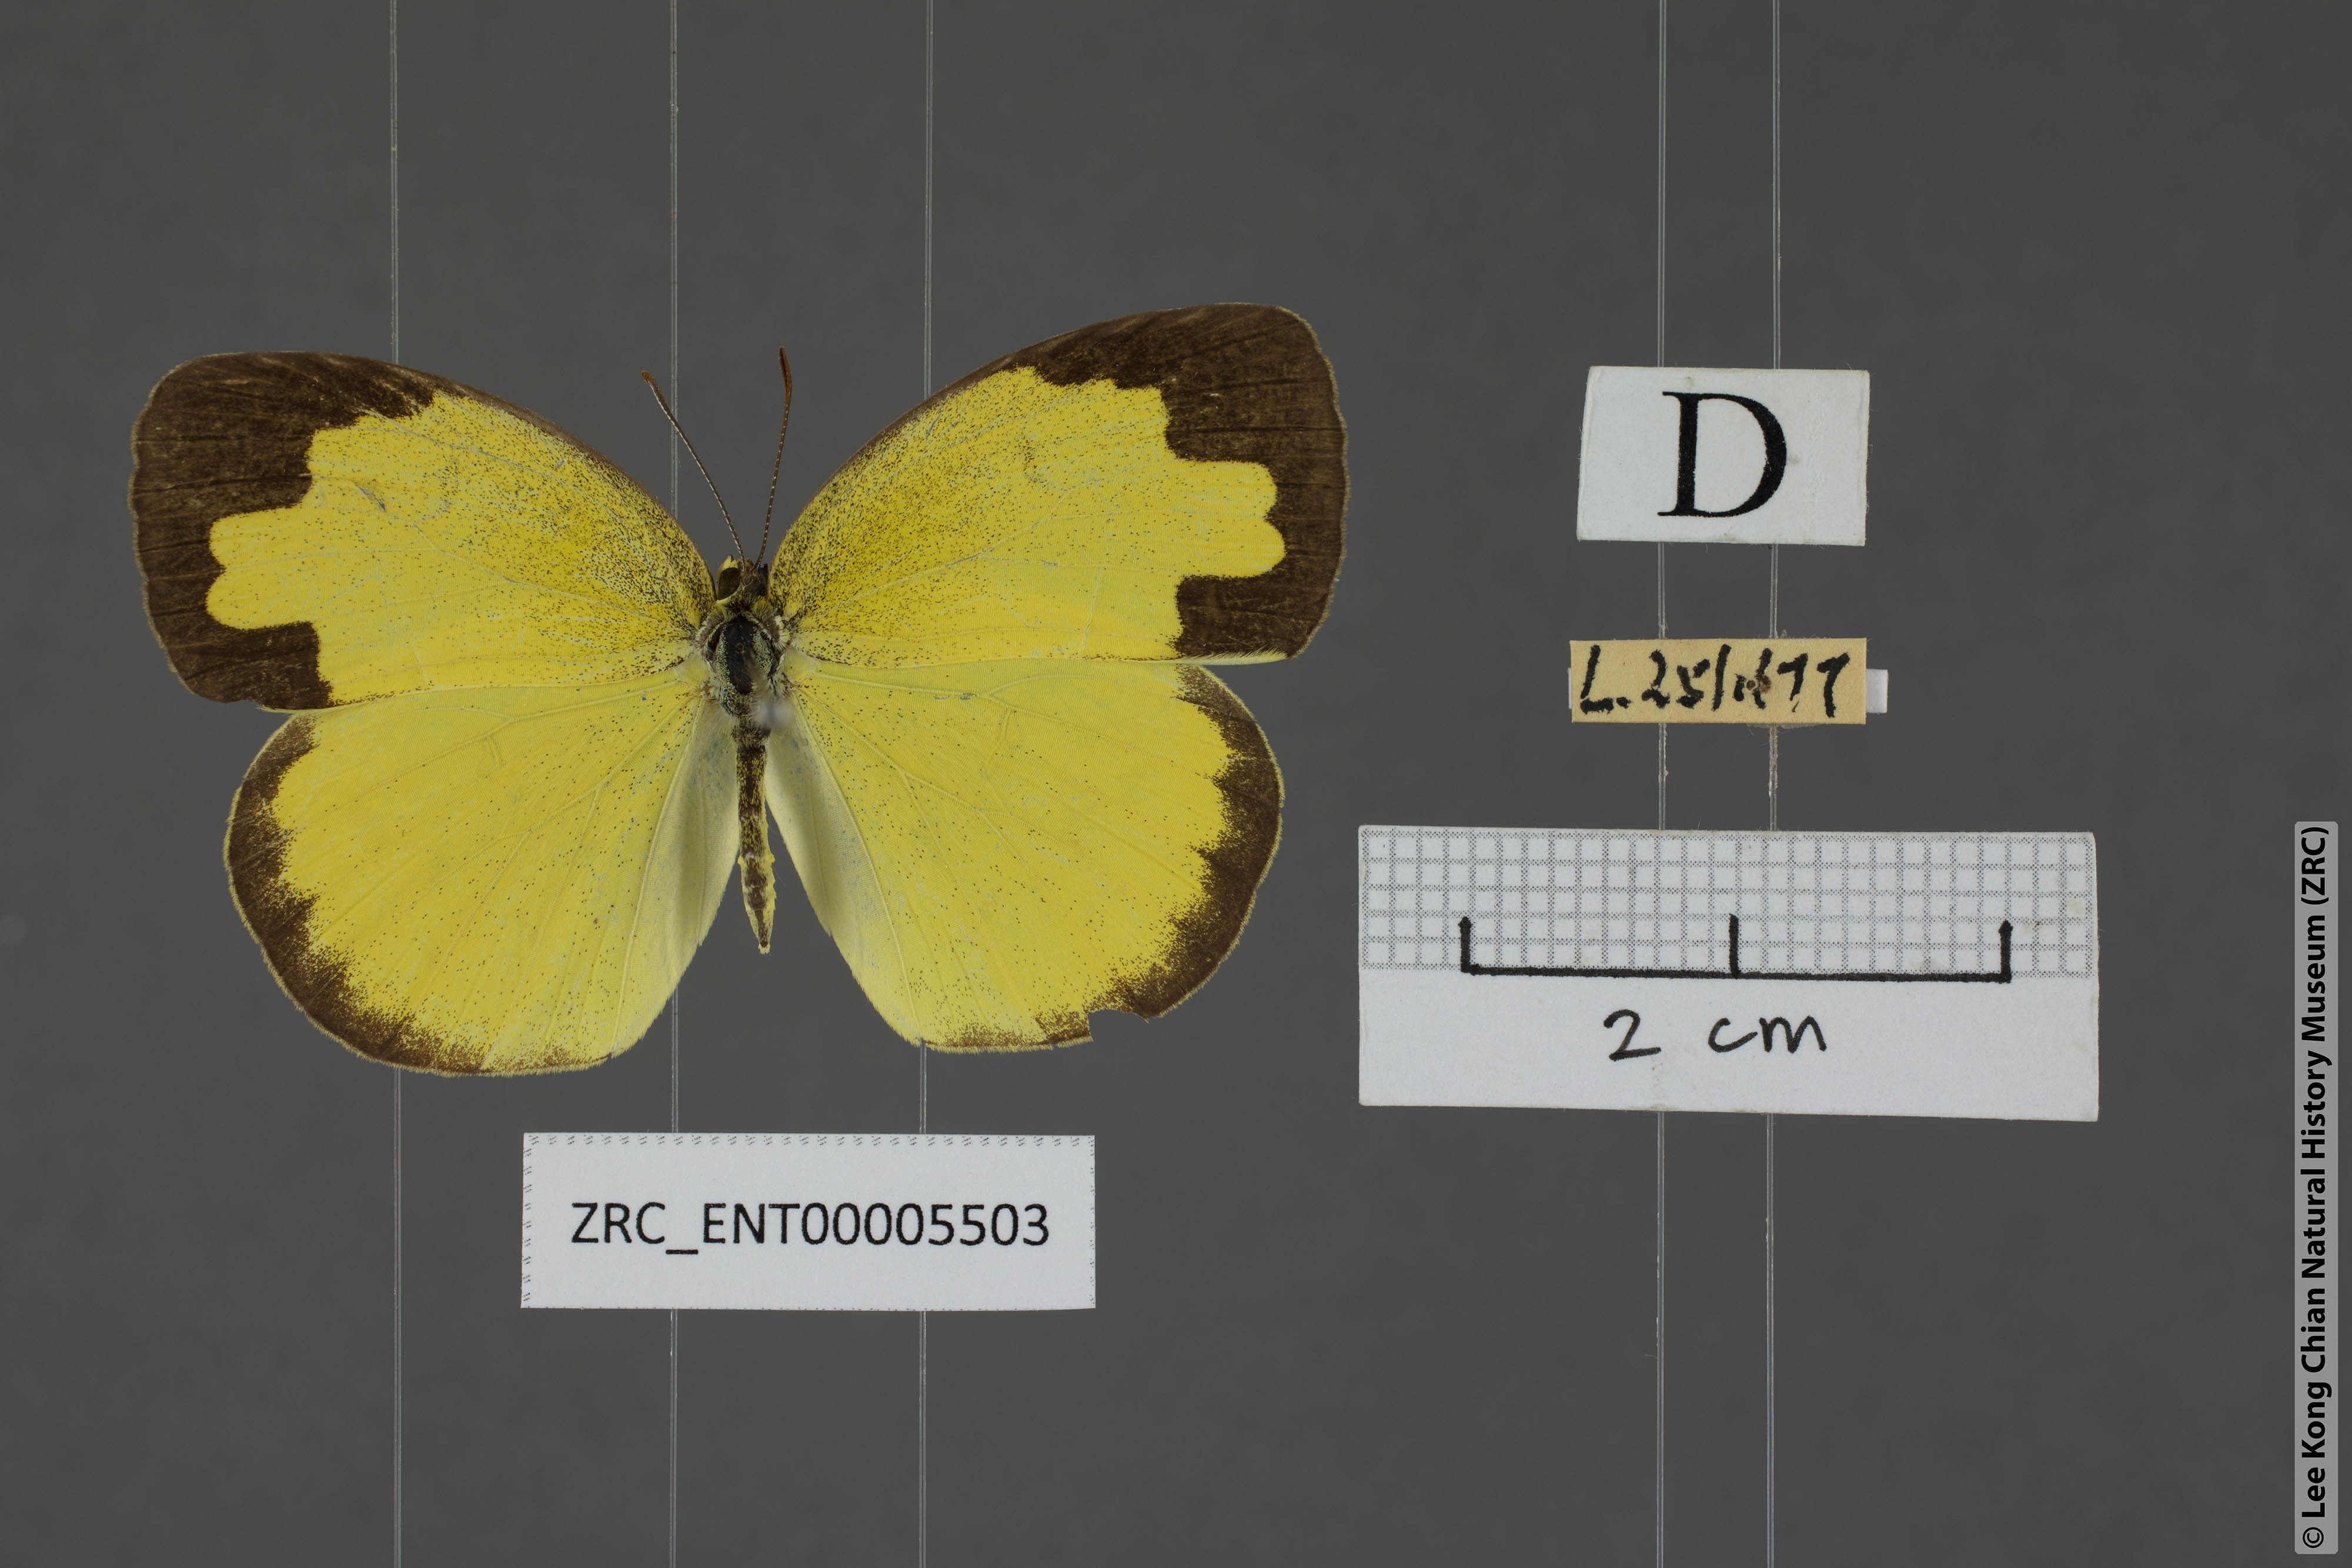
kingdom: Animalia
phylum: Arthropoda
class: Insecta
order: Lepidoptera
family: Pieridae
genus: Eurema
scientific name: Eurema ada
